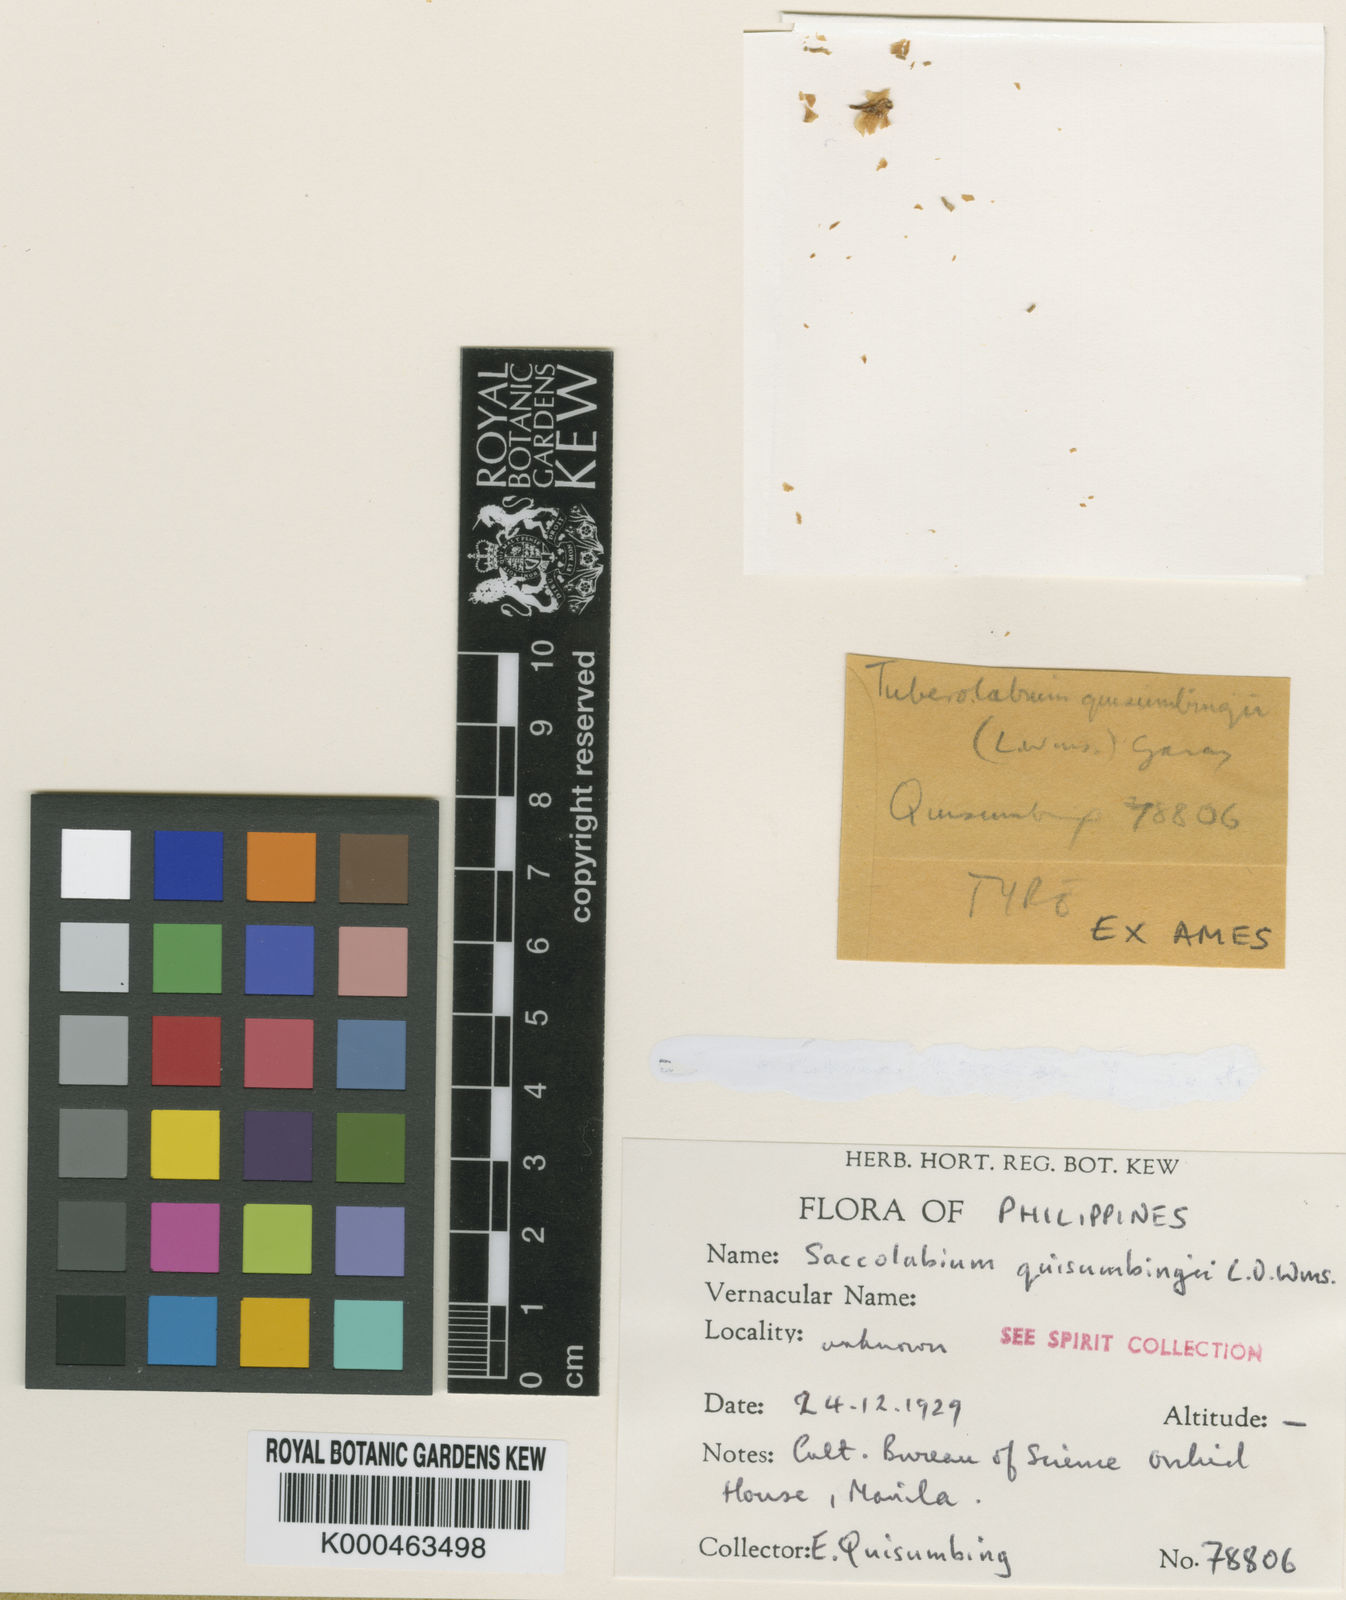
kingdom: Plantae
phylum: Tracheophyta
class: Liliopsida
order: Asparagales
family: Orchidaceae
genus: Tuberolabium
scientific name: Tuberolabium quisumbingii
